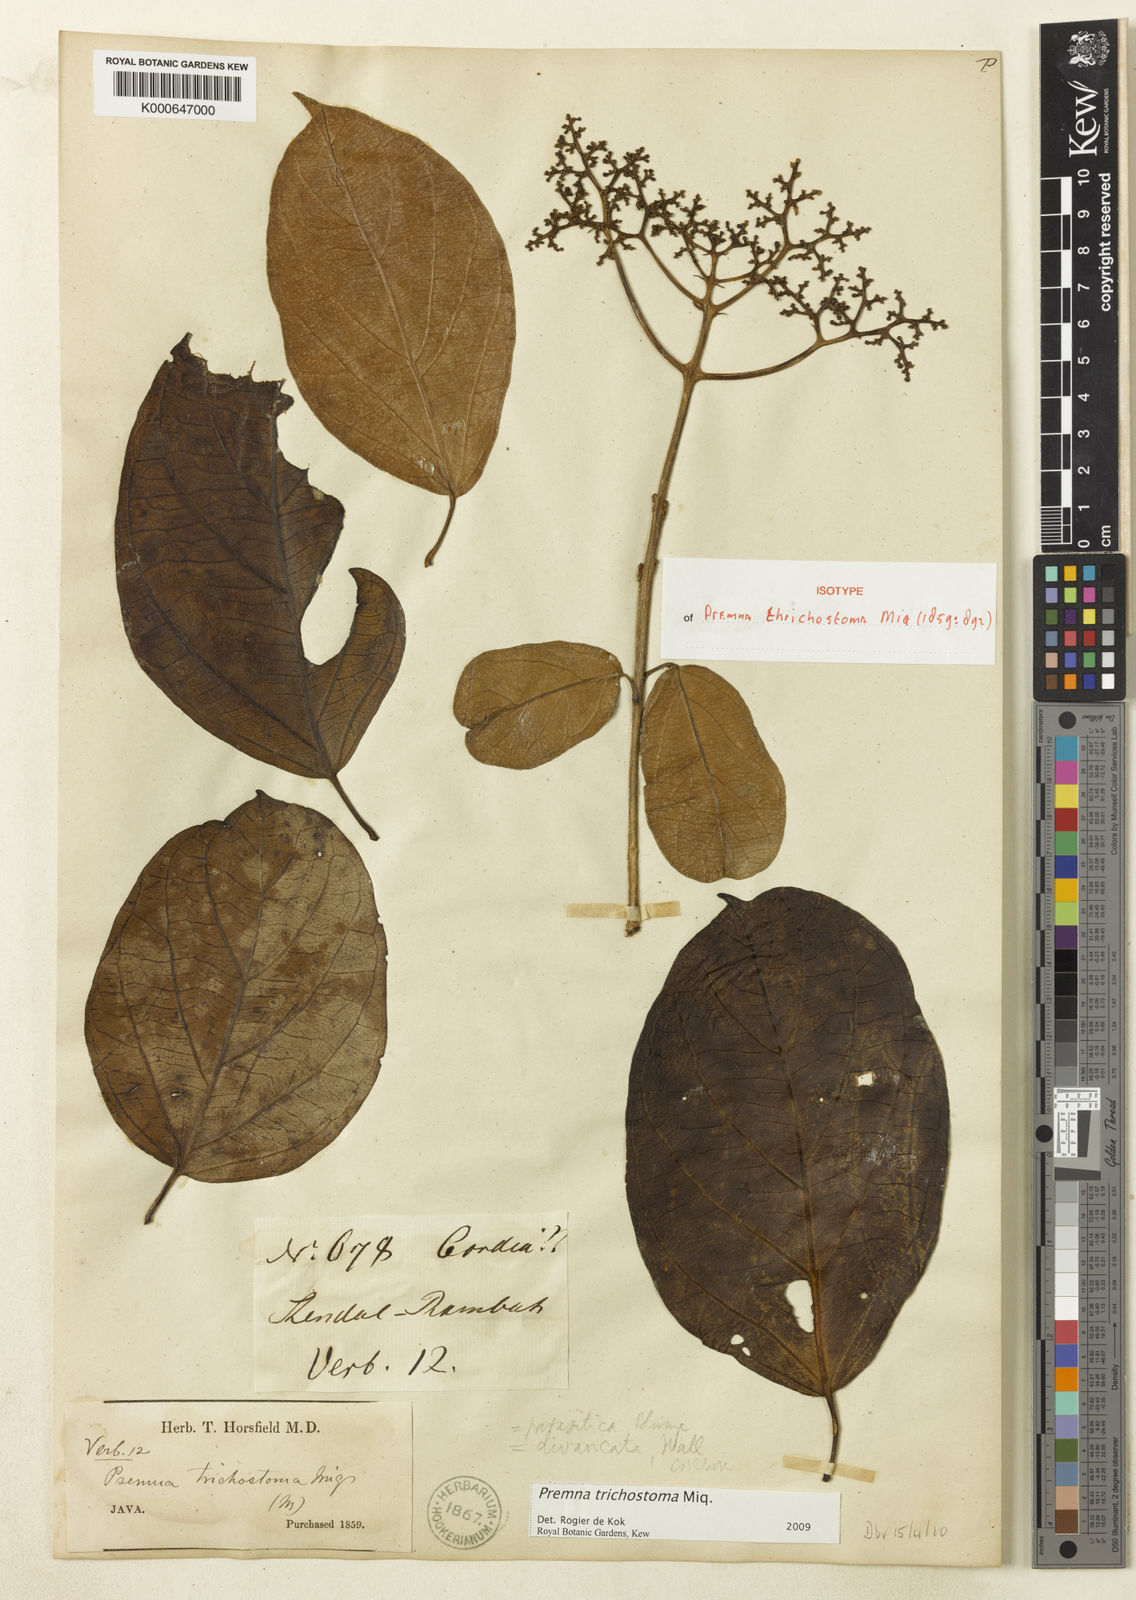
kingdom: Plantae
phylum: Tracheophyta
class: Magnoliopsida
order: Lamiales
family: Lamiaceae
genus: Premna
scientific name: Premna trichostoma
